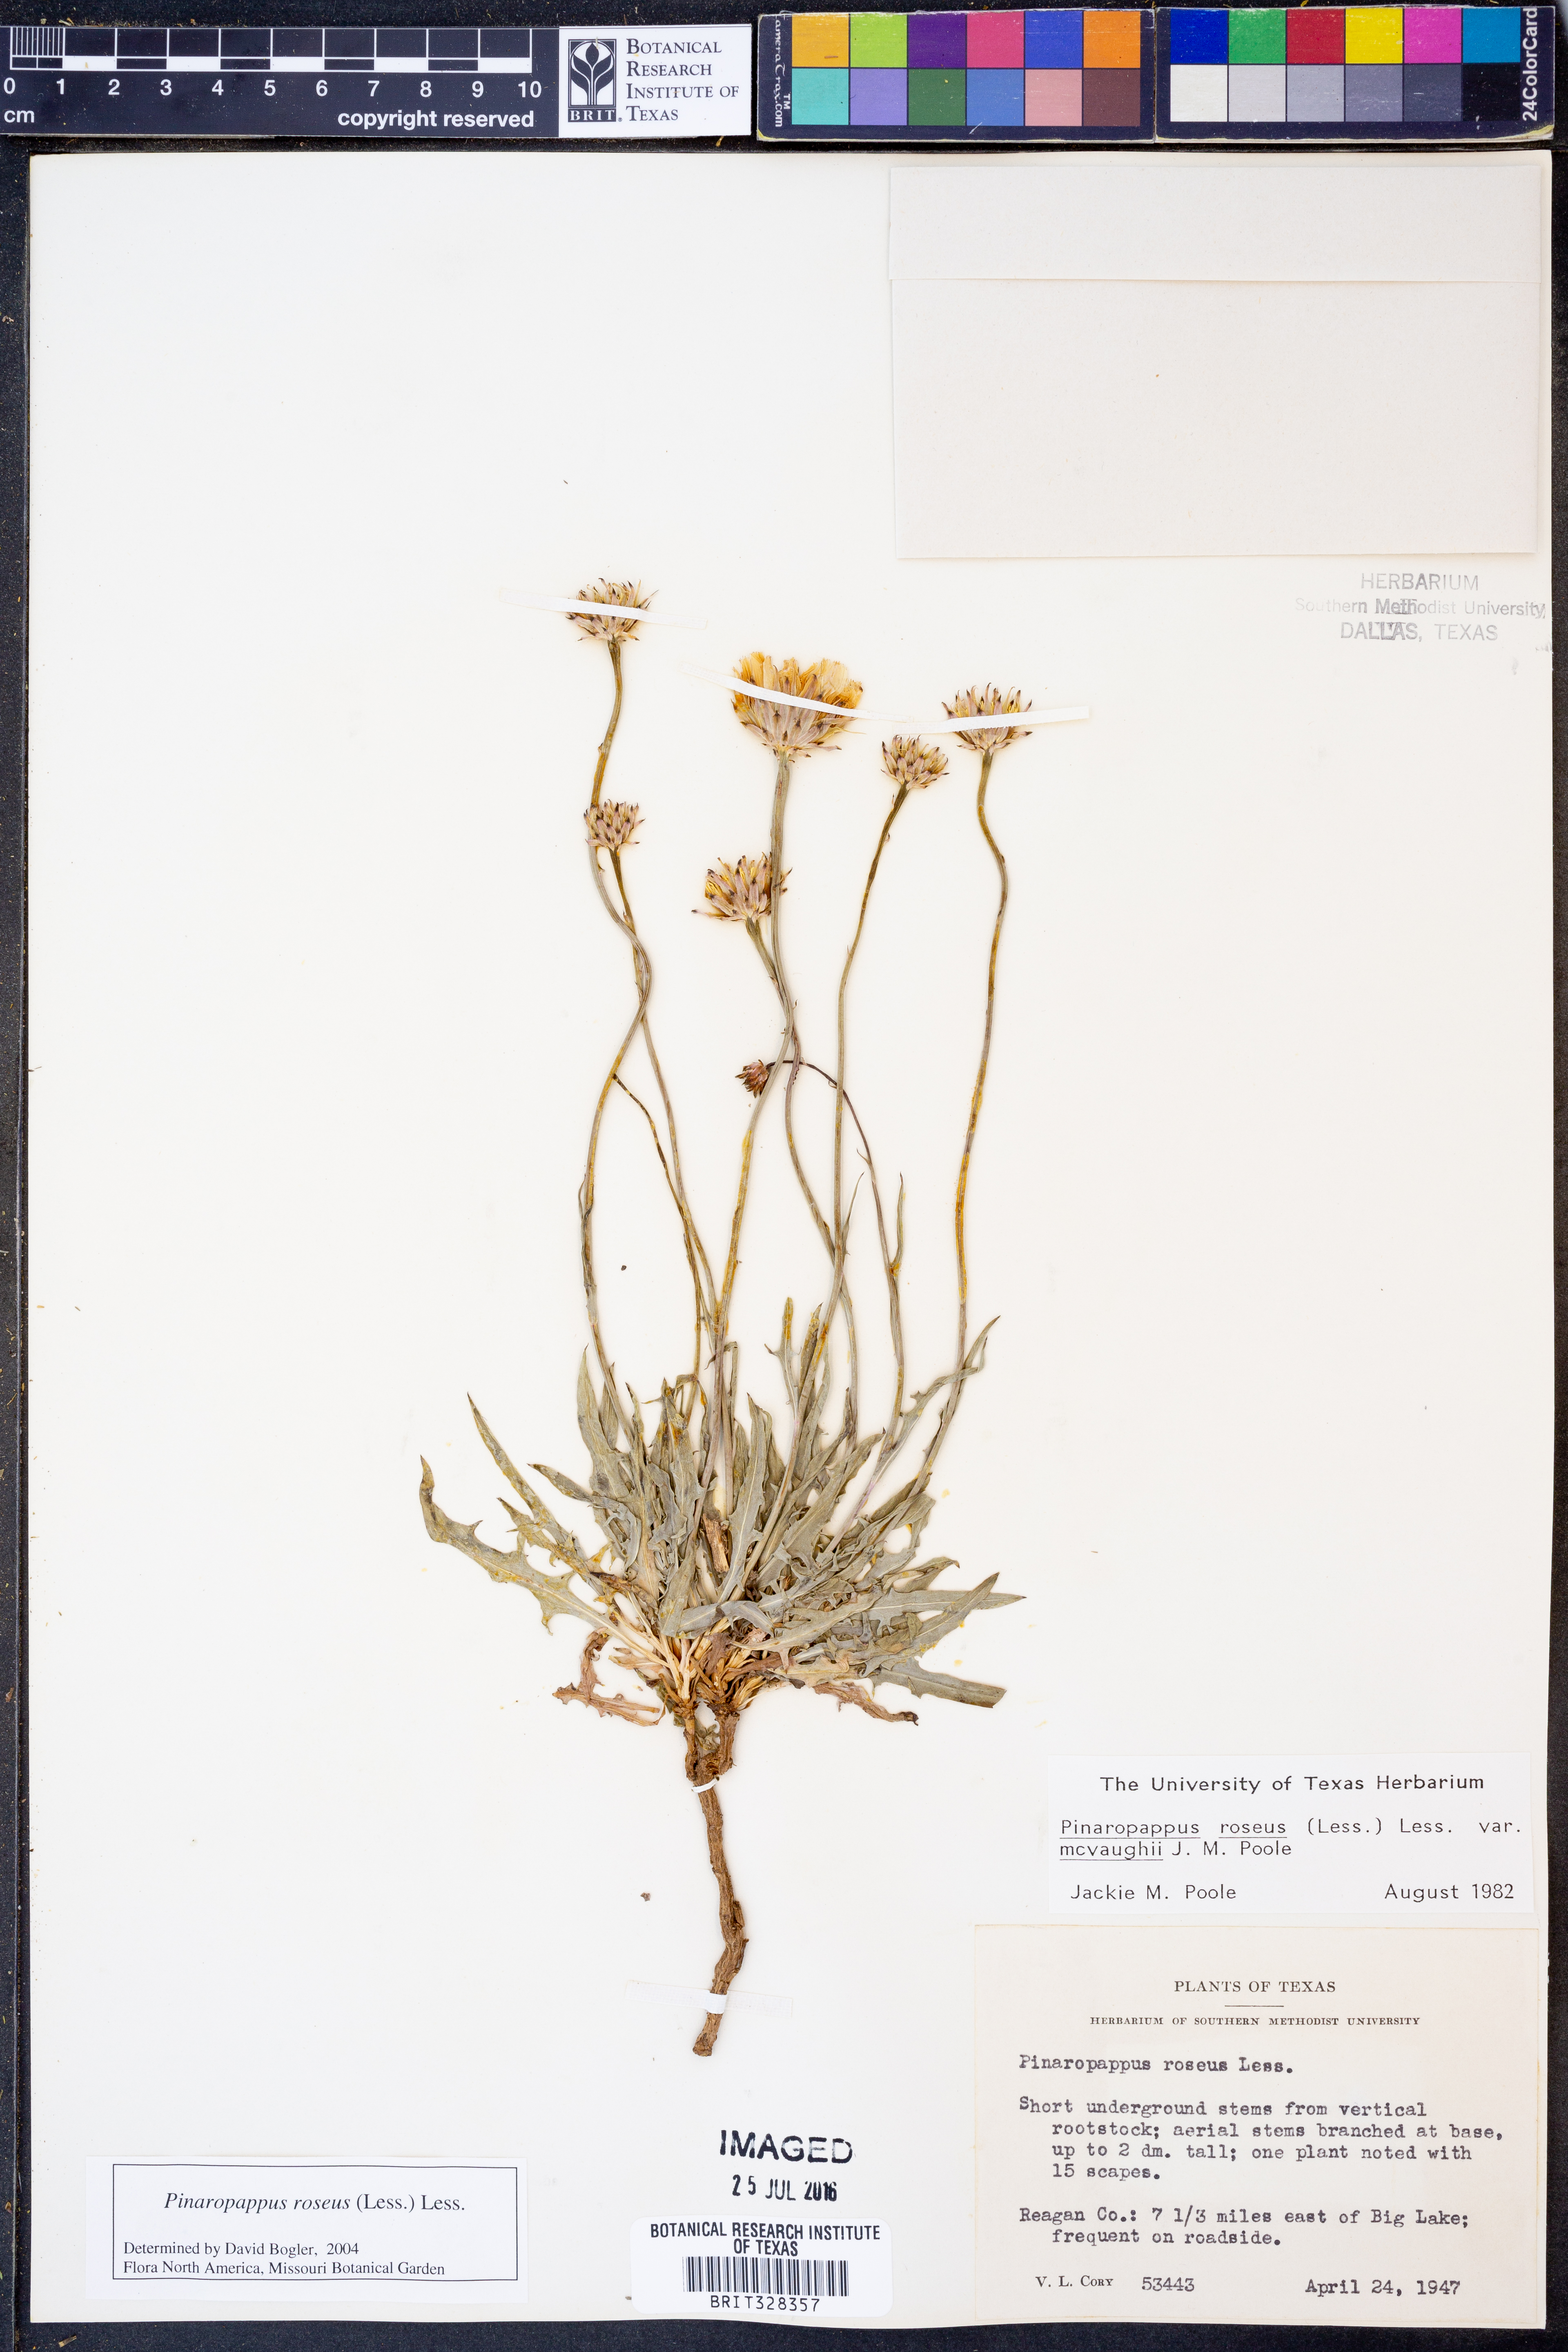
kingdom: Plantae
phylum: Tracheophyta
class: Magnoliopsida
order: Asterales
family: Asteraceae
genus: Pinaropappus
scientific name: Pinaropappus roseus
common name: Rock-lettuce
